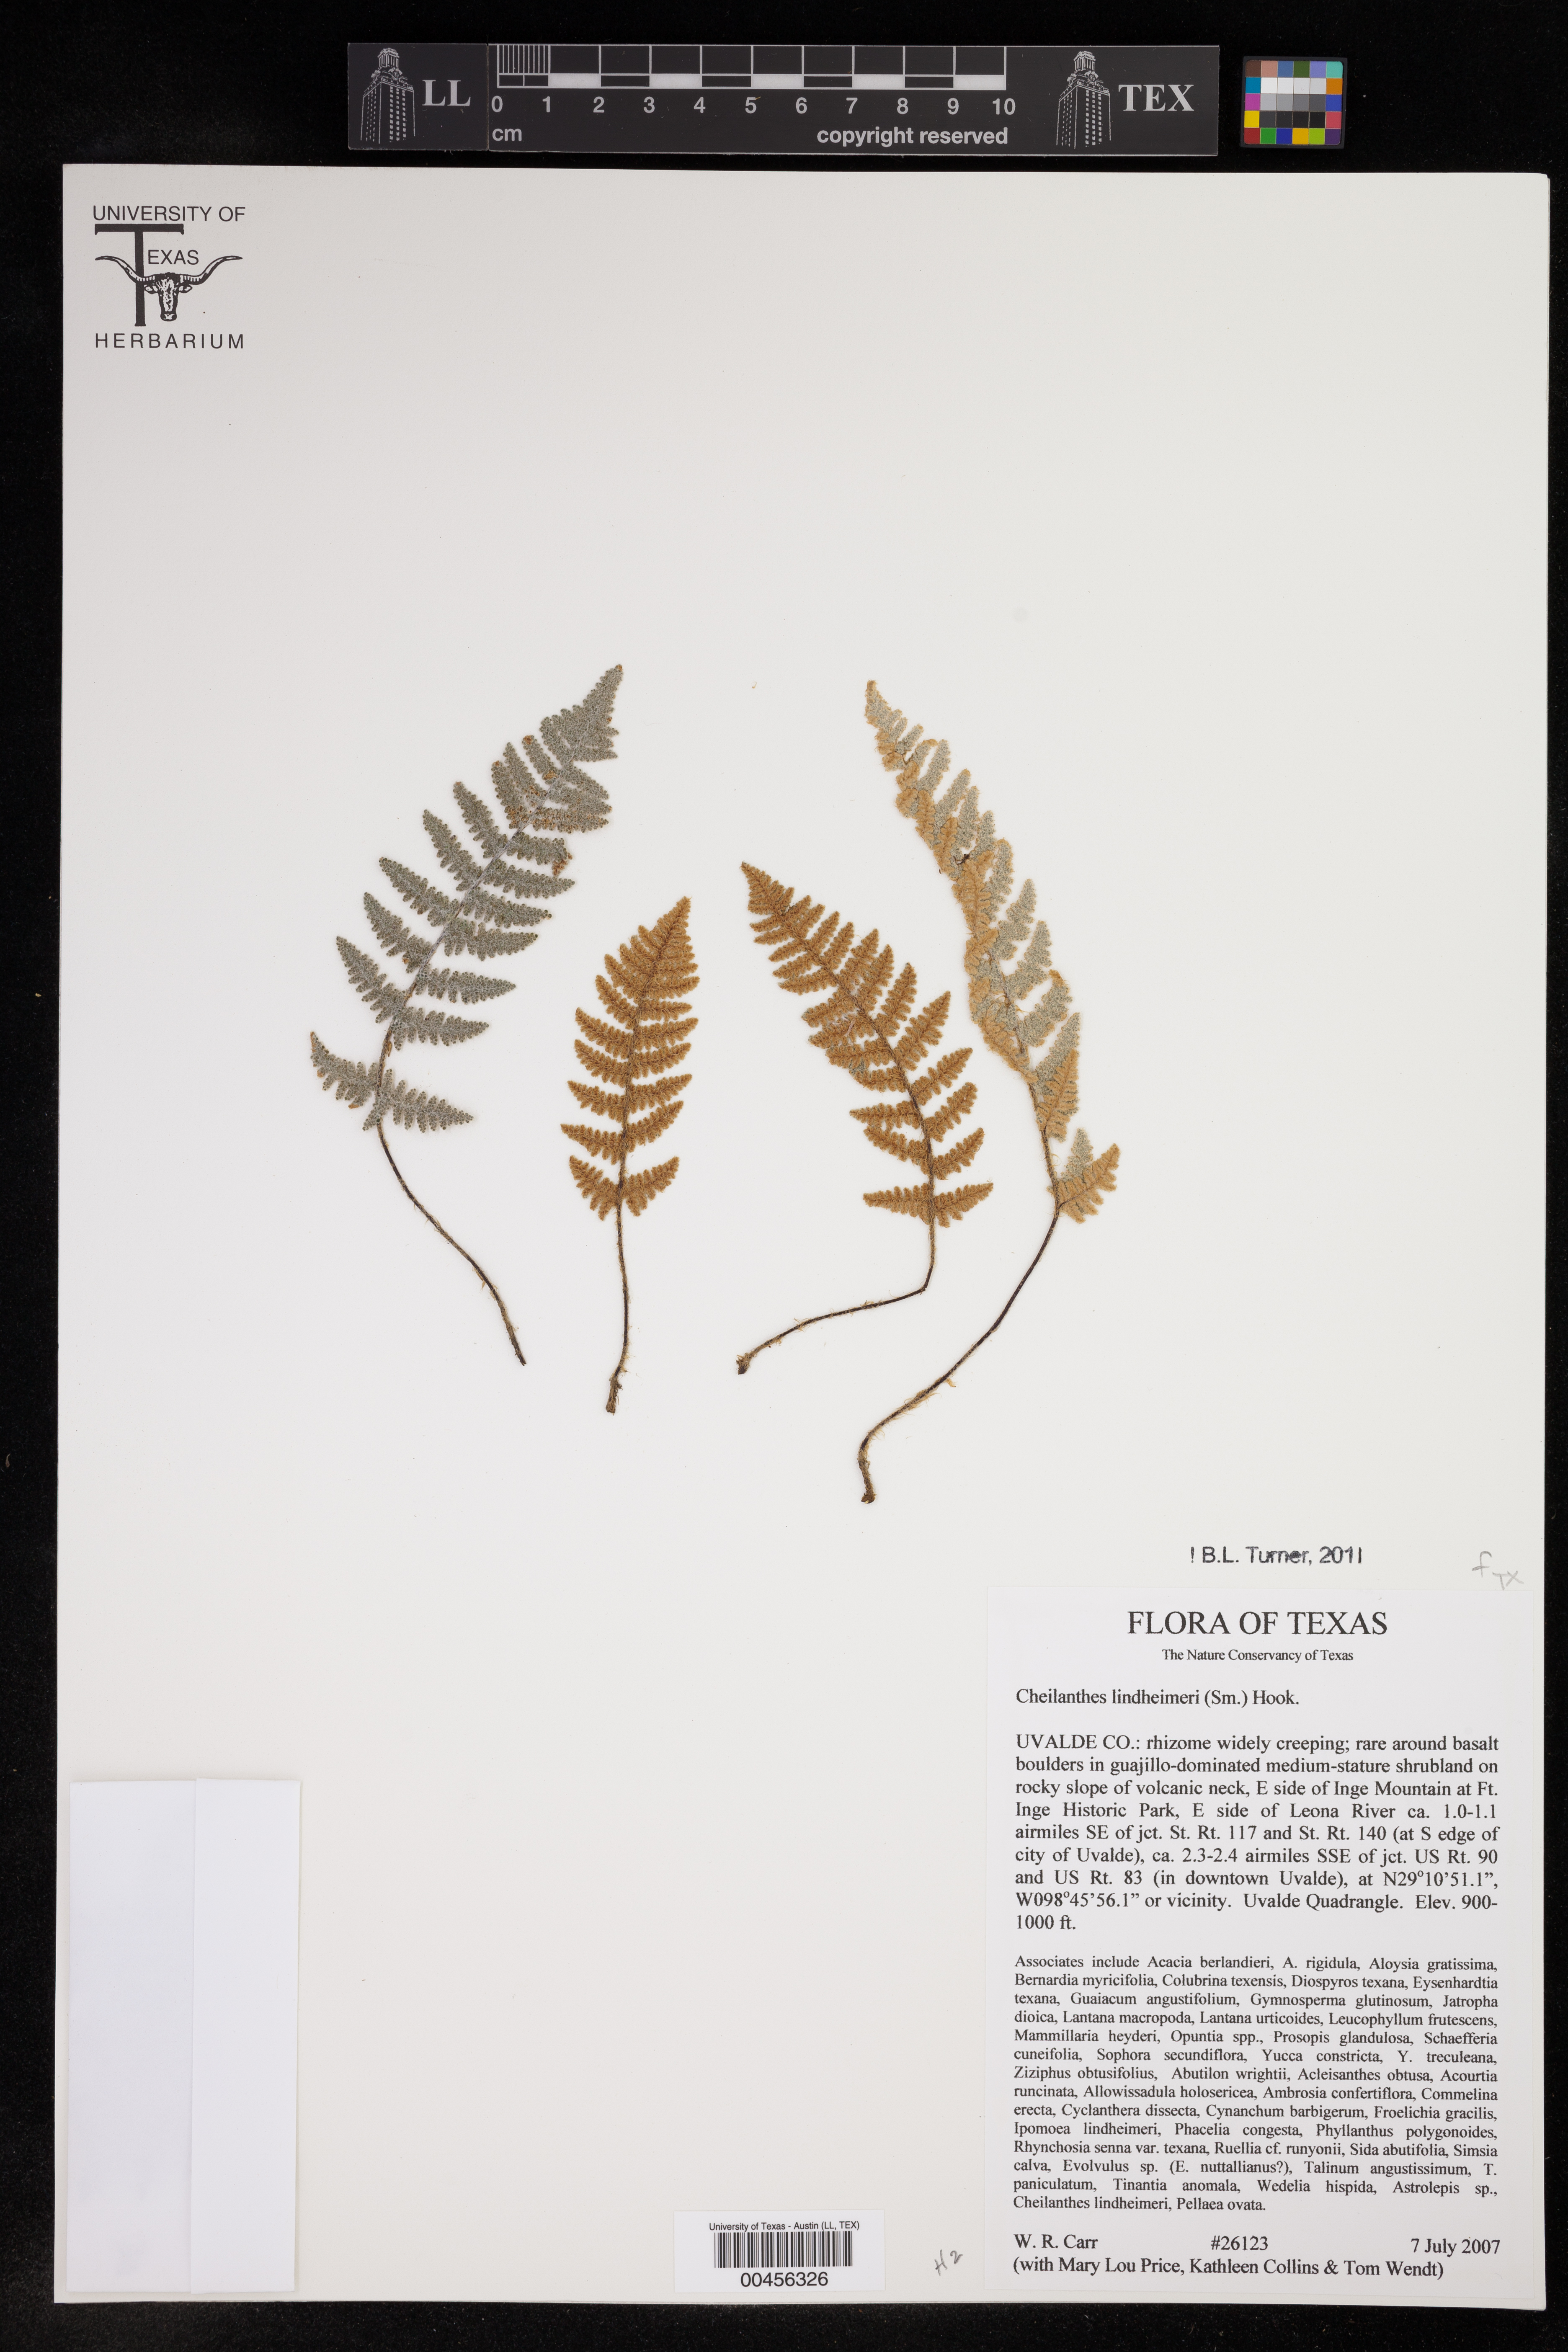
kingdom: Plantae
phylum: Tracheophyta
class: Polypodiopsida
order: Polypodiales
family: Pteridaceae
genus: Myriopteris
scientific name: Myriopteris lindheimeri
